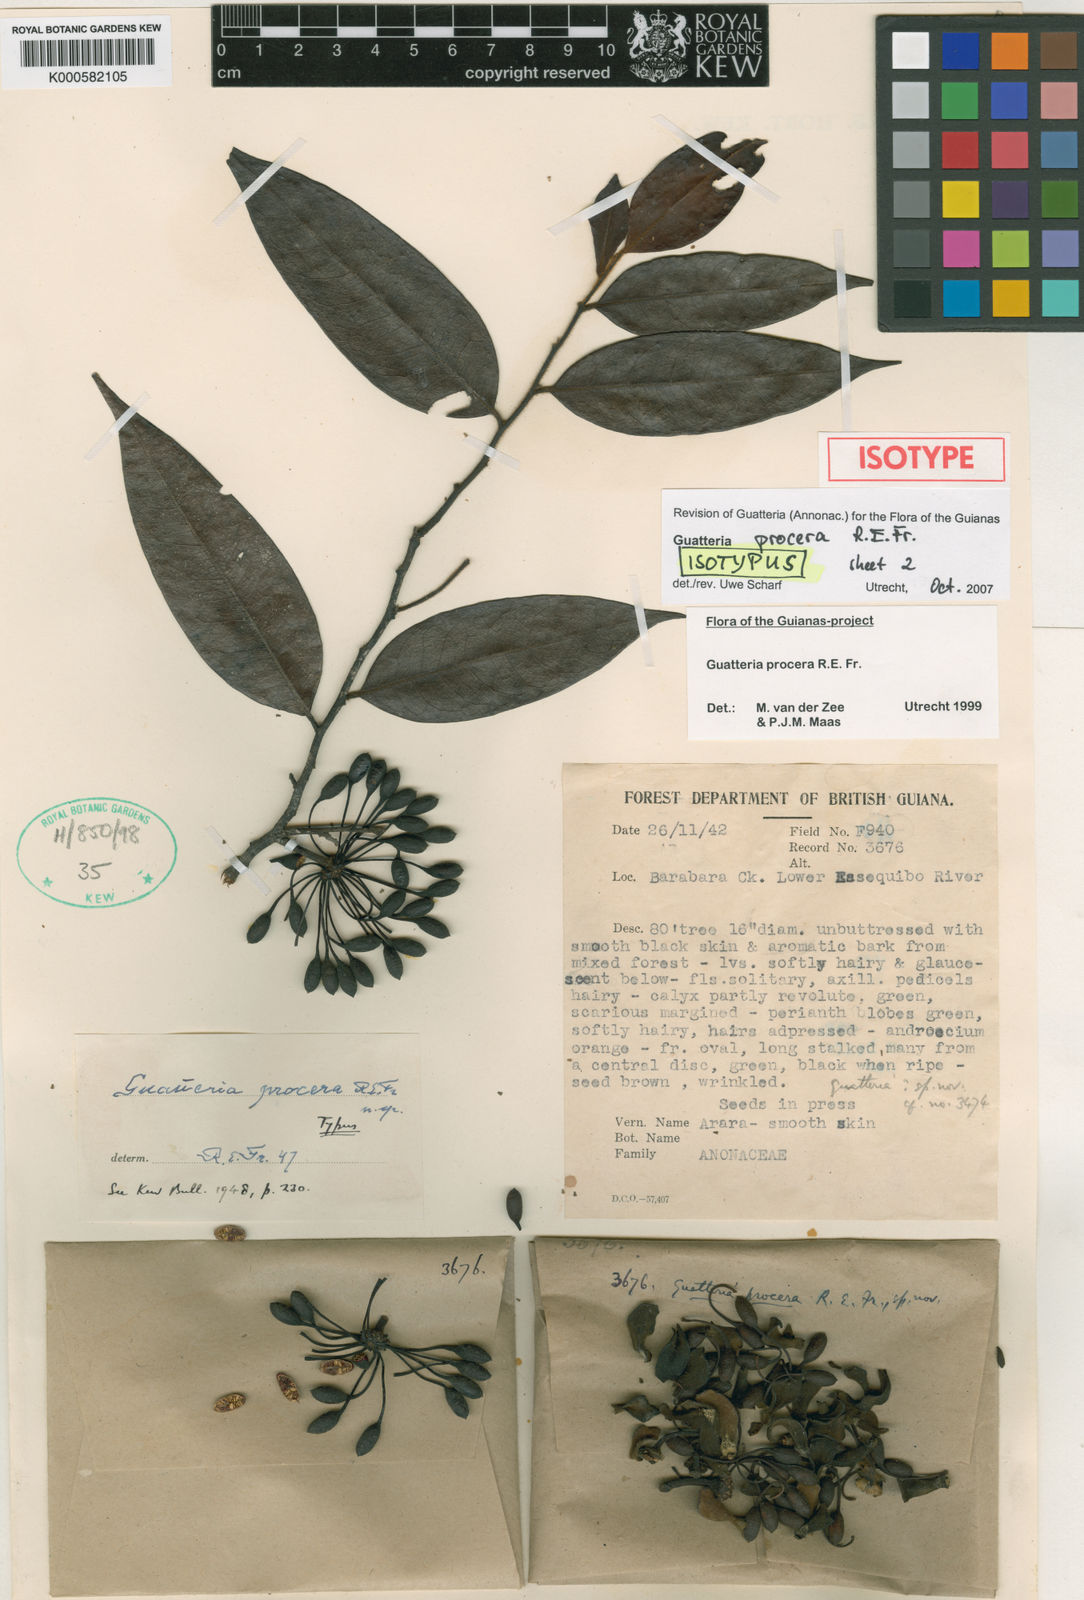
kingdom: Plantae
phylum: Tracheophyta
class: Magnoliopsida
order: Magnoliales
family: Annonaceae
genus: Guatteria
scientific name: Guatteria procera
